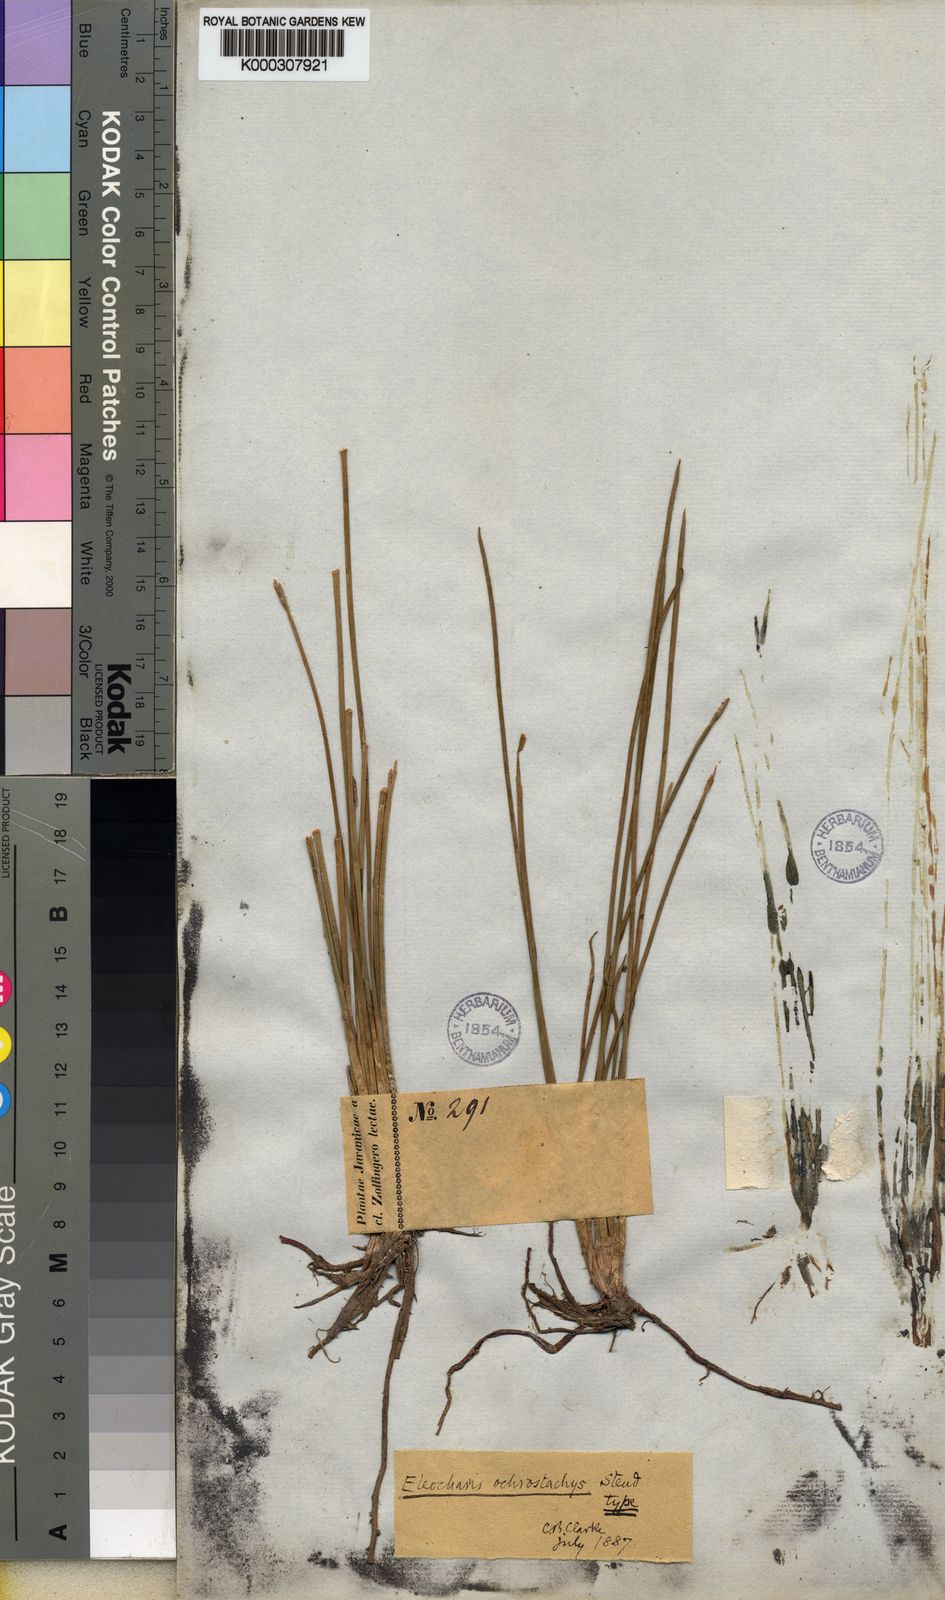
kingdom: Plantae
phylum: Tracheophyta
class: Liliopsida
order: Poales
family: Cyperaceae
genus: Eleocharis
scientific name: Eleocharis ochrostachys
